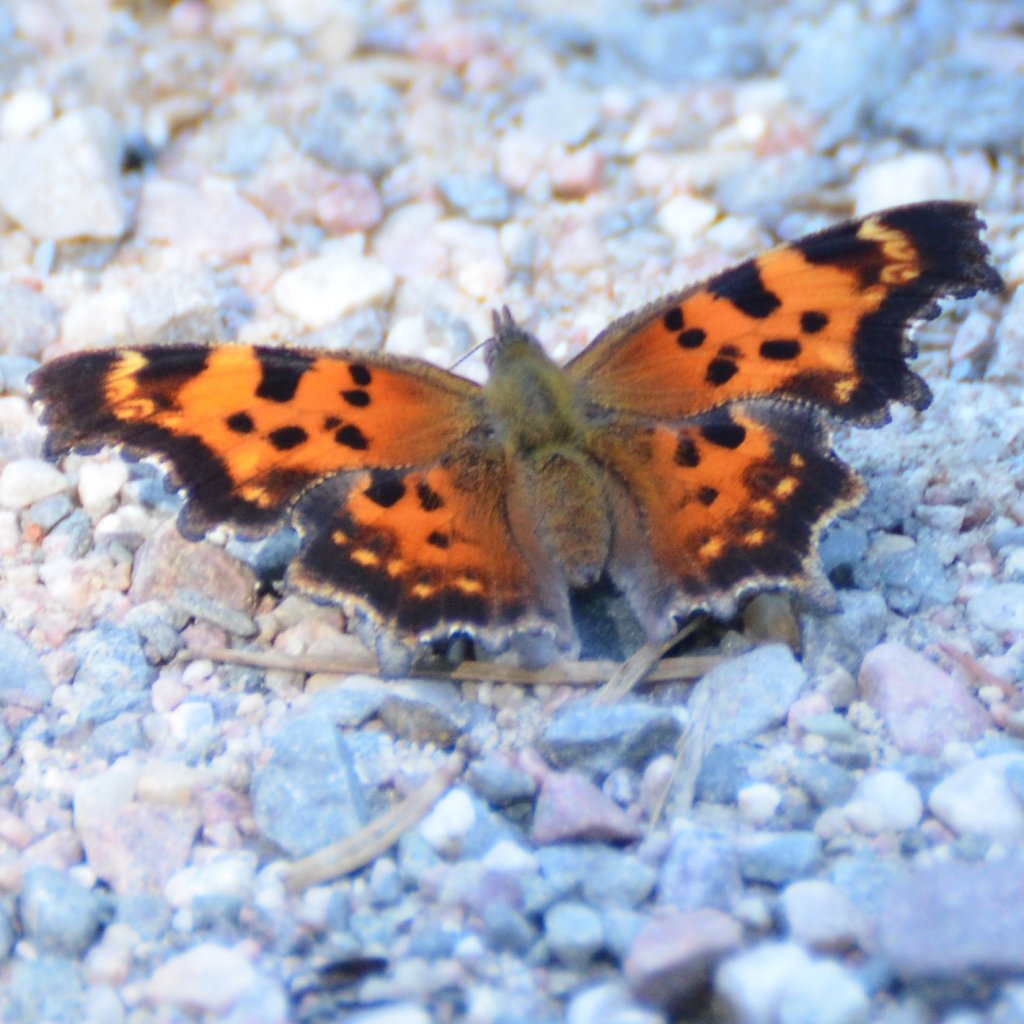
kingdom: Animalia
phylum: Arthropoda
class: Insecta
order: Lepidoptera
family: Nymphalidae
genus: Polygonia
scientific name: Polygonia faunus
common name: Green Comma
